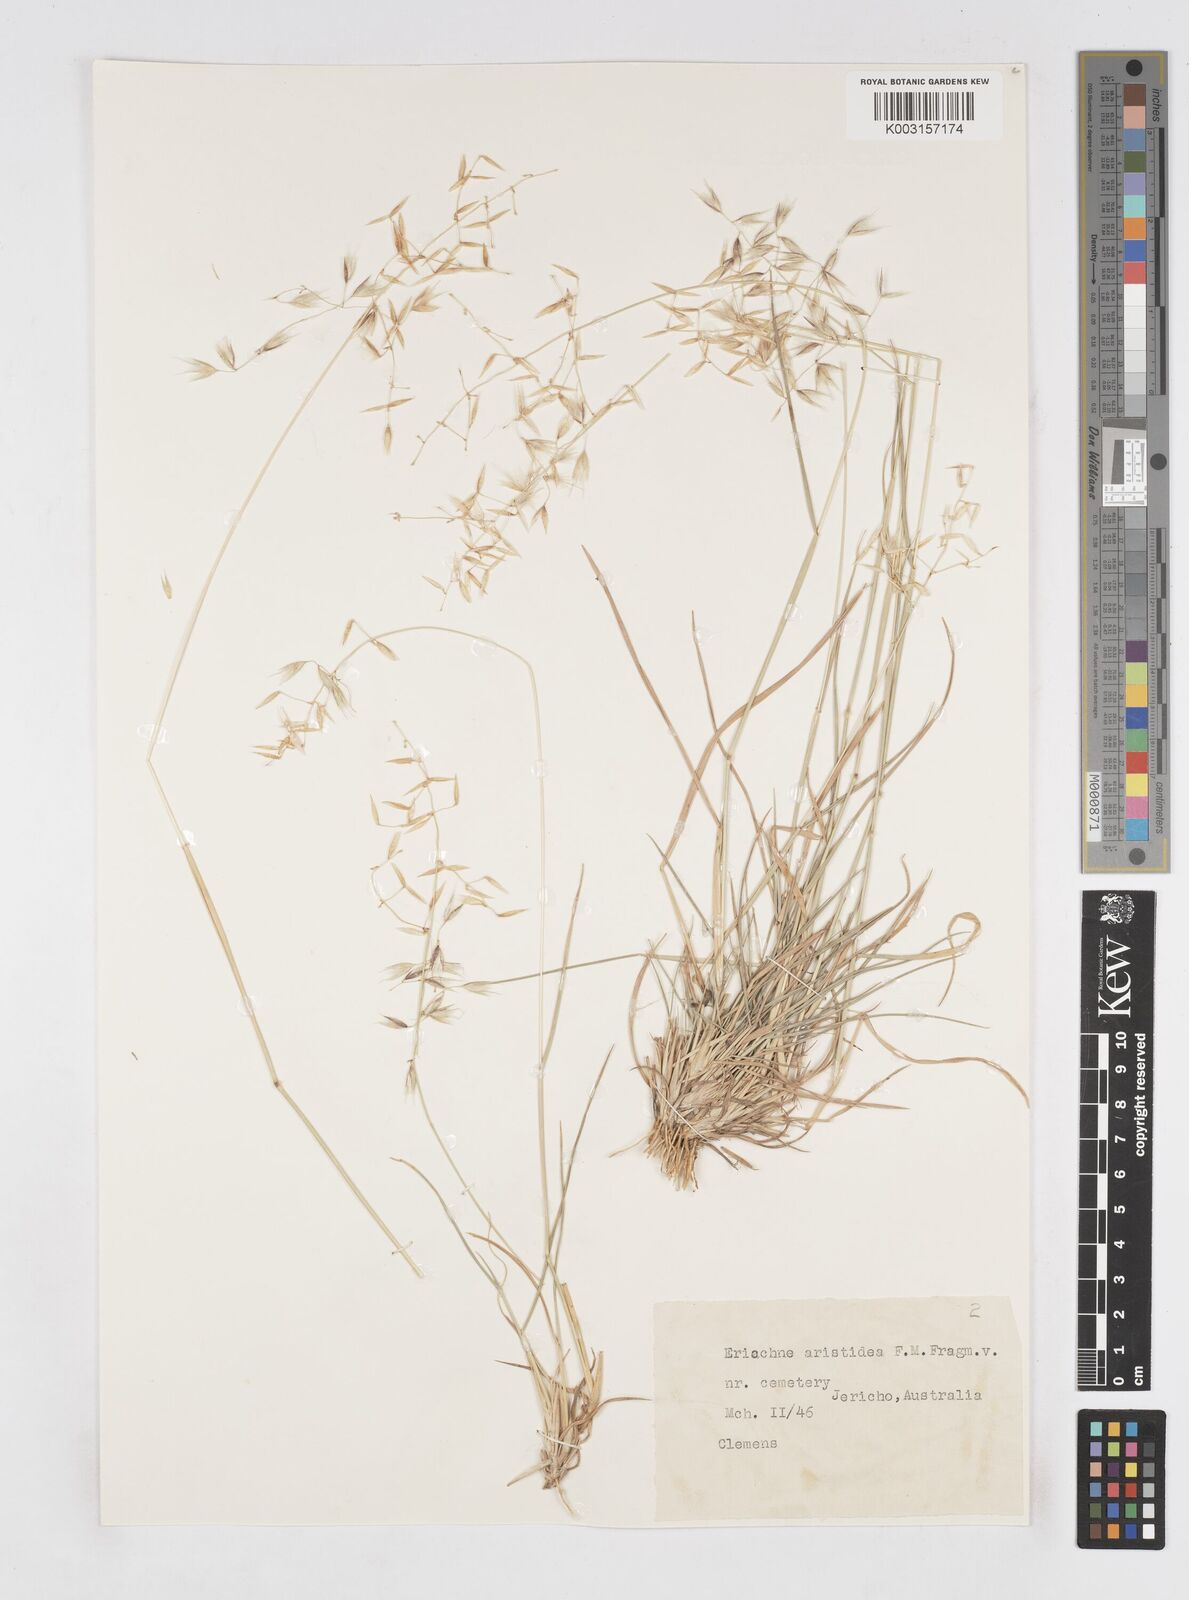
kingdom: Plantae
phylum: Tracheophyta
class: Liliopsida
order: Poales
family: Poaceae
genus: Eriachne
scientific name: Eriachne aristidea
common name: Three-awn wanderrie grass
